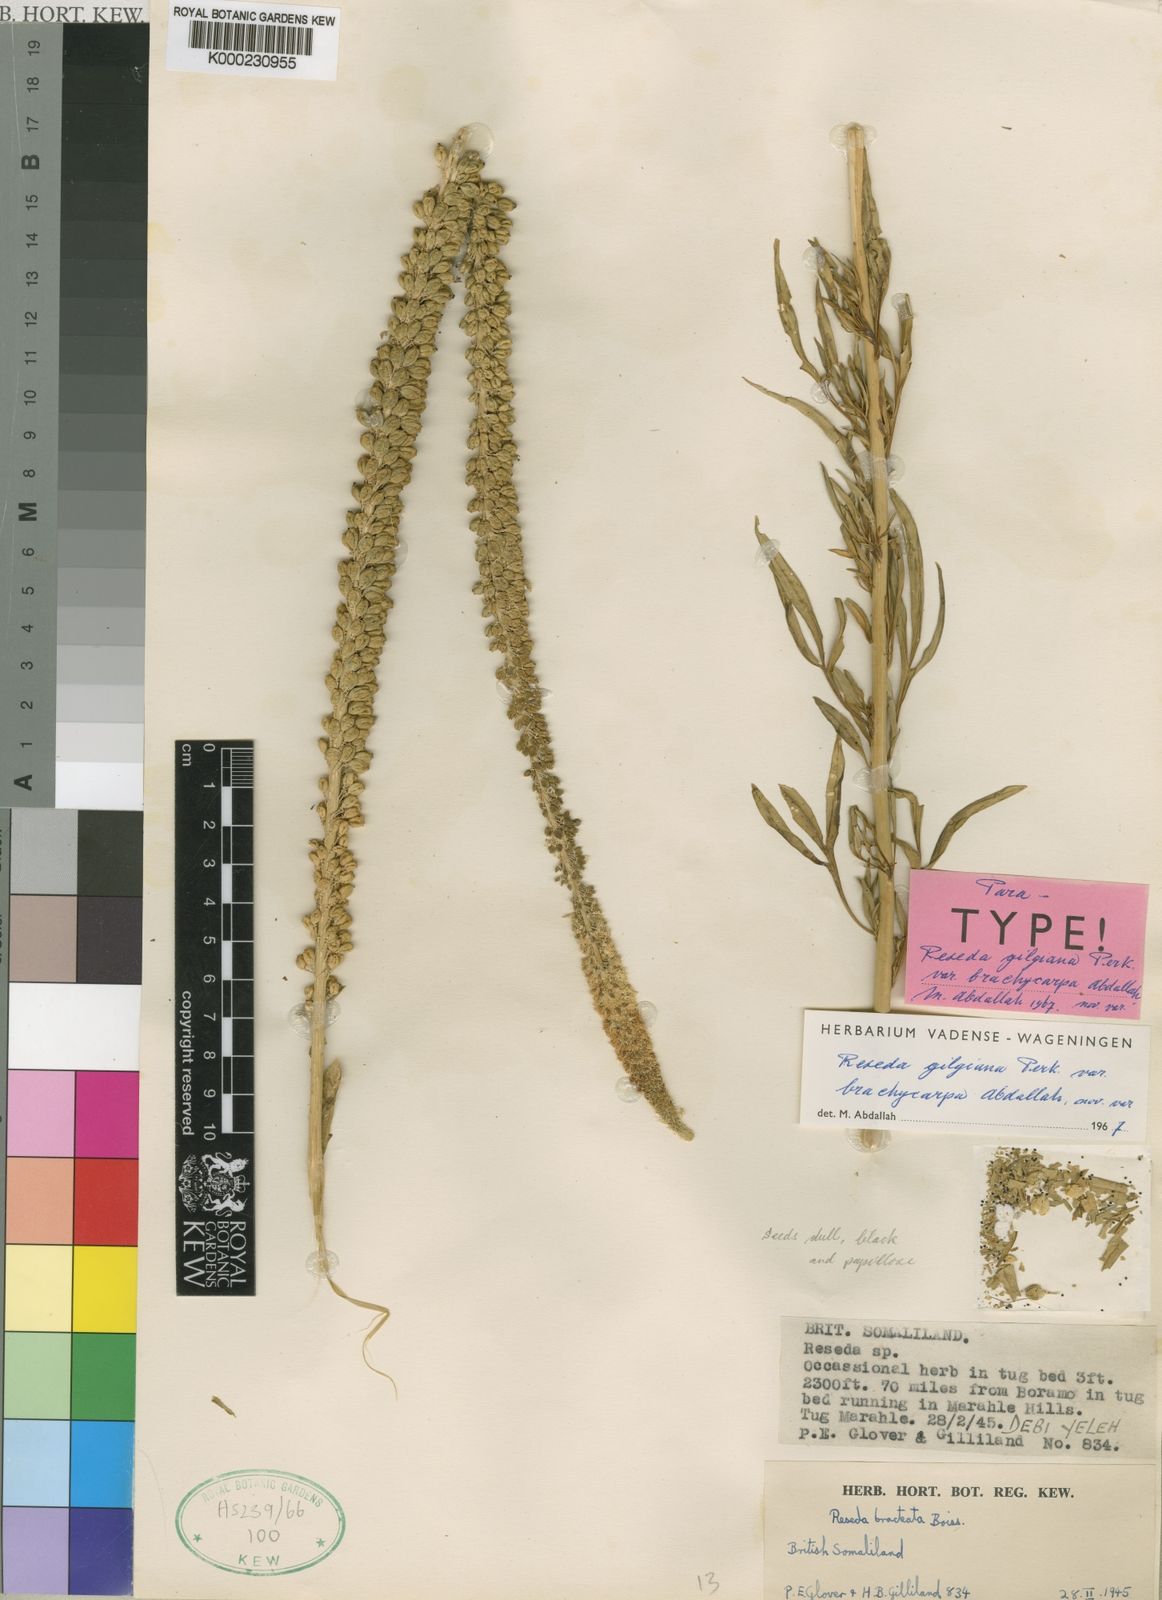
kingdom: Plantae
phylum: Tracheophyta
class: Magnoliopsida
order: Brassicales
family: Resedaceae
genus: Reseda
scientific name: Reseda amblycarpa
